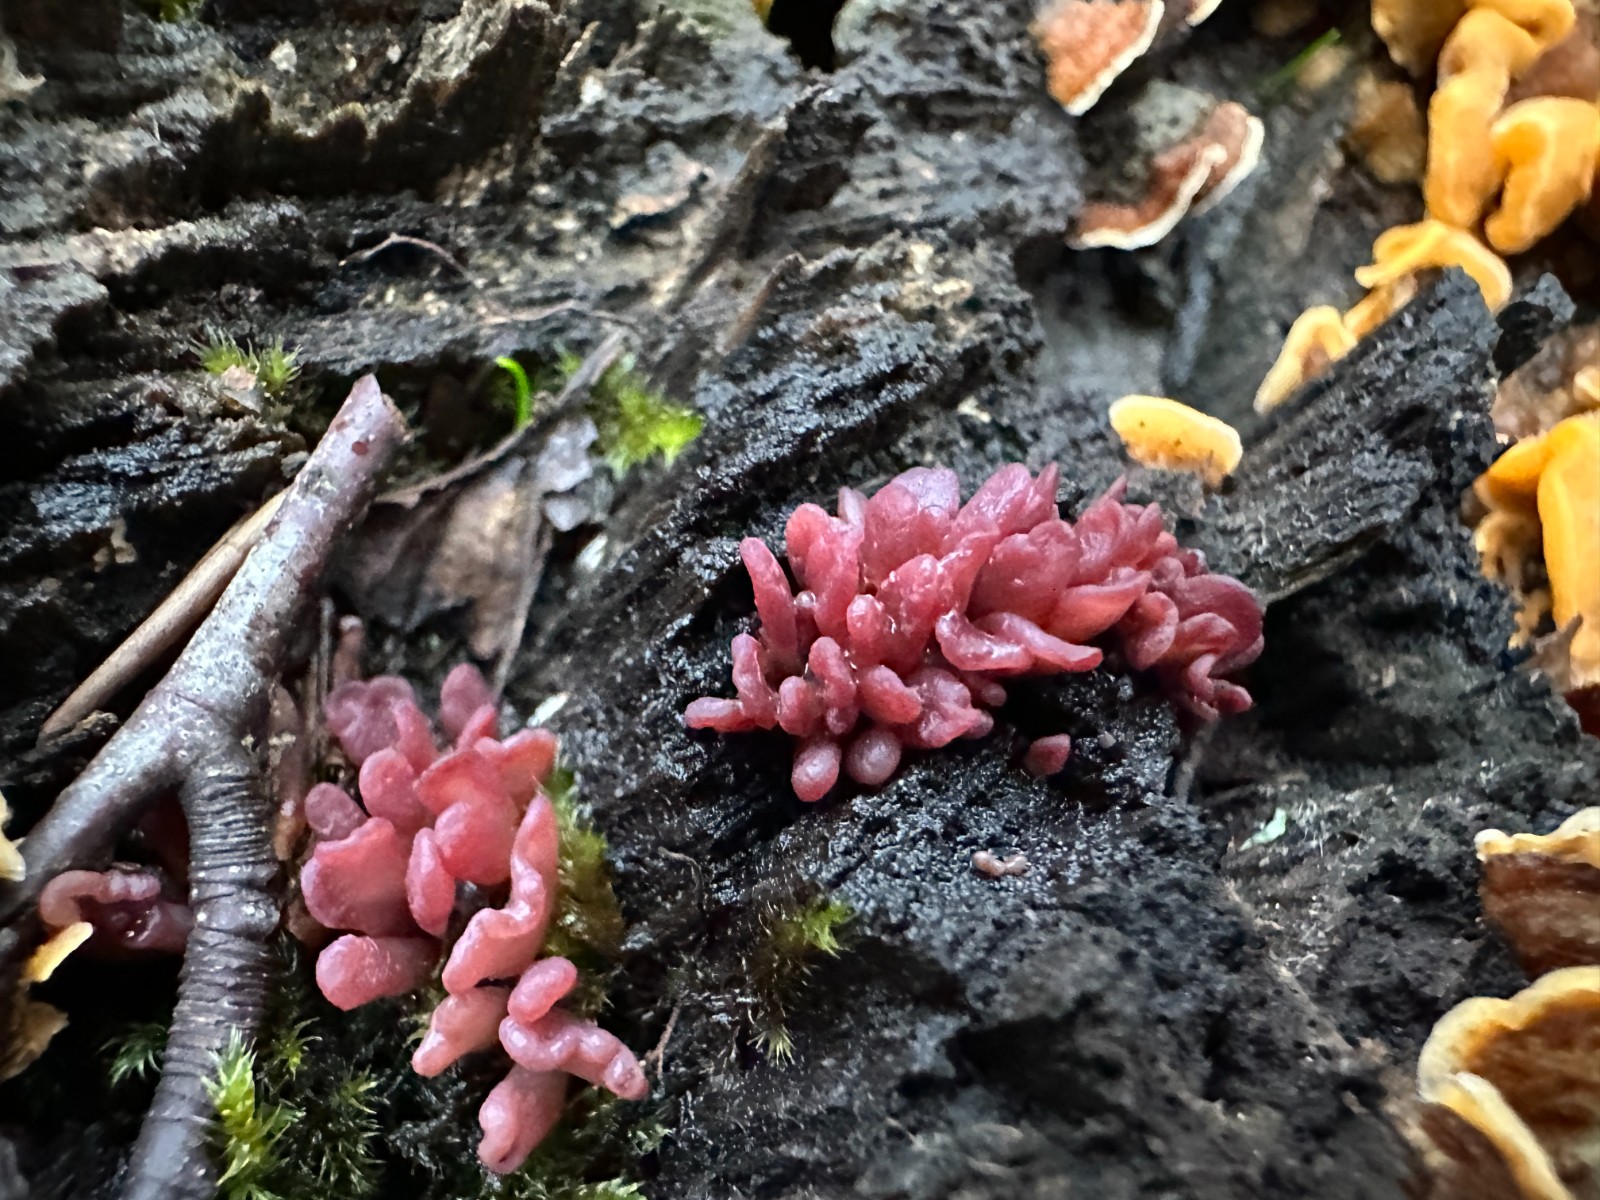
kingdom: Fungi
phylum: Ascomycota
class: Leotiomycetes
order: Helotiales
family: Gelatinodiscaceae
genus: Ascocoryne
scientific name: Ascocoryne sarcoides
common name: rødlilla sejskive
